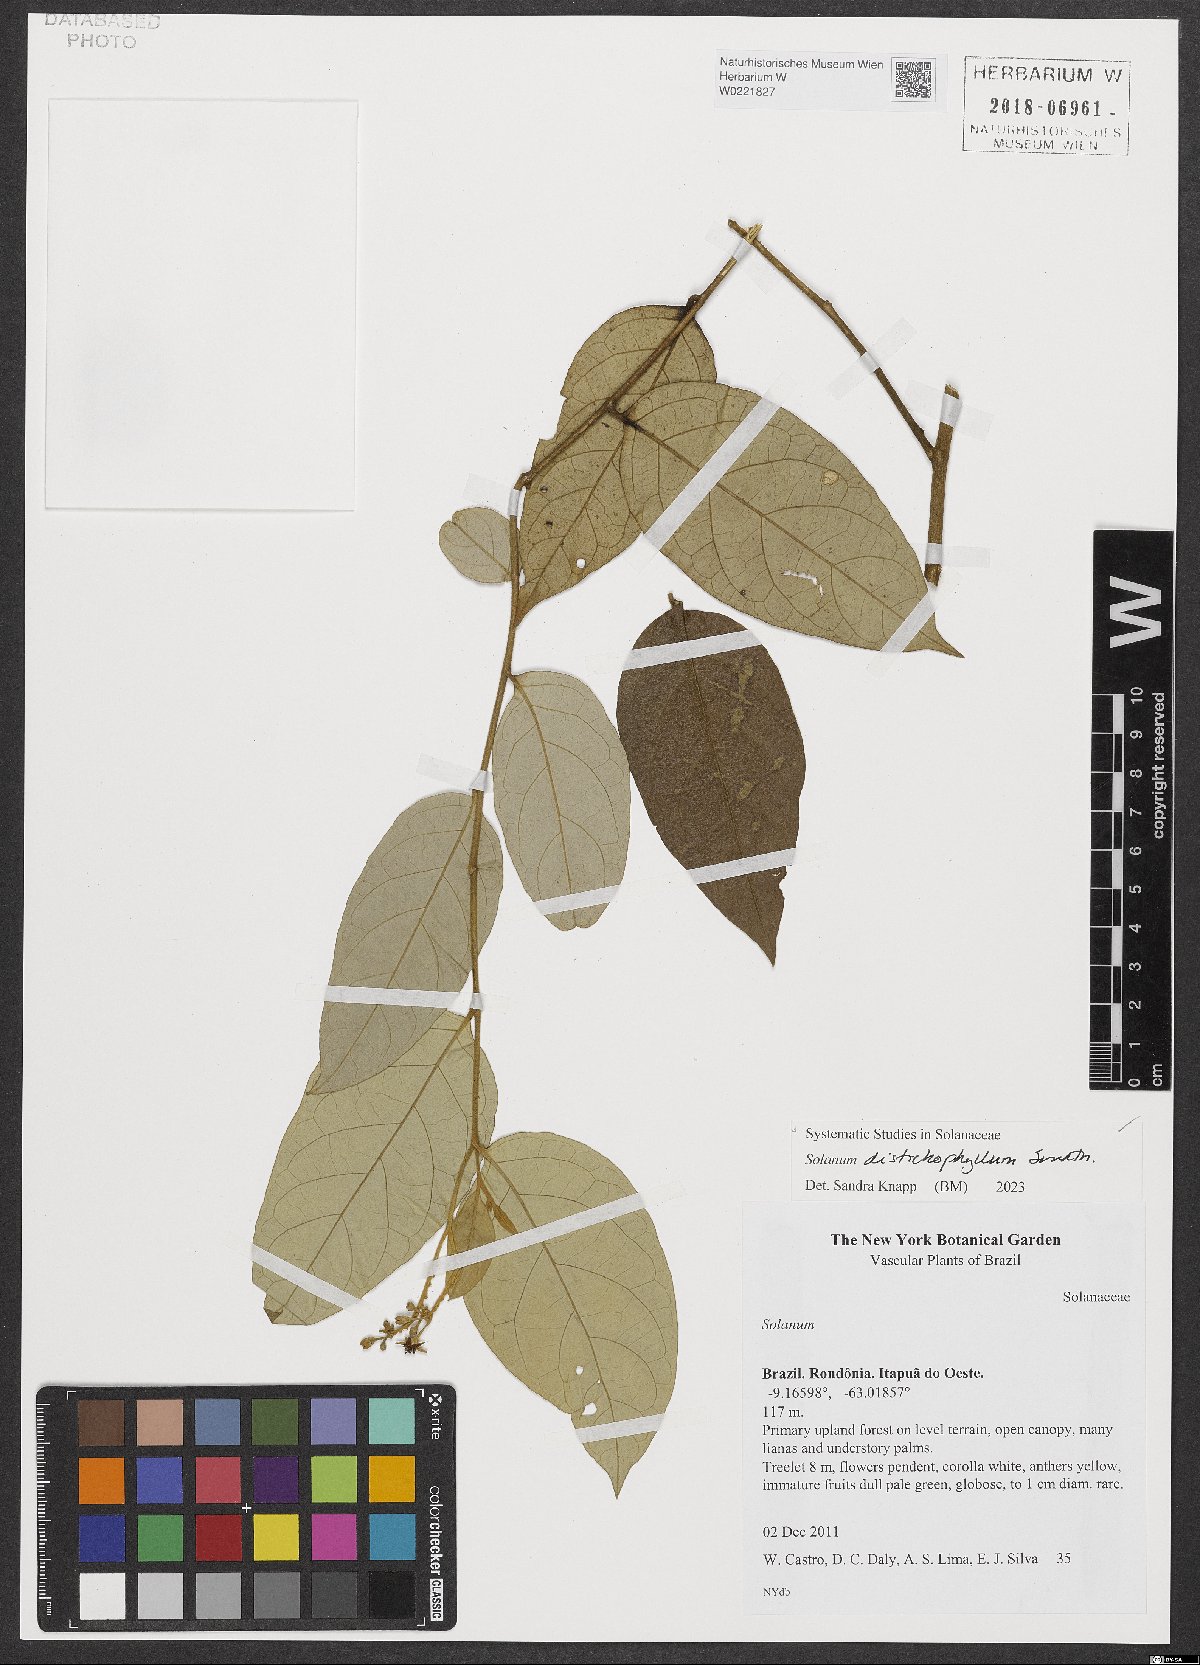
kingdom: Plantae
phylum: Tracheophyta
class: Magnoliopsida
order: Solanales
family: Solanaceae
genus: Solanum
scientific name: Solanum distichophyllum
